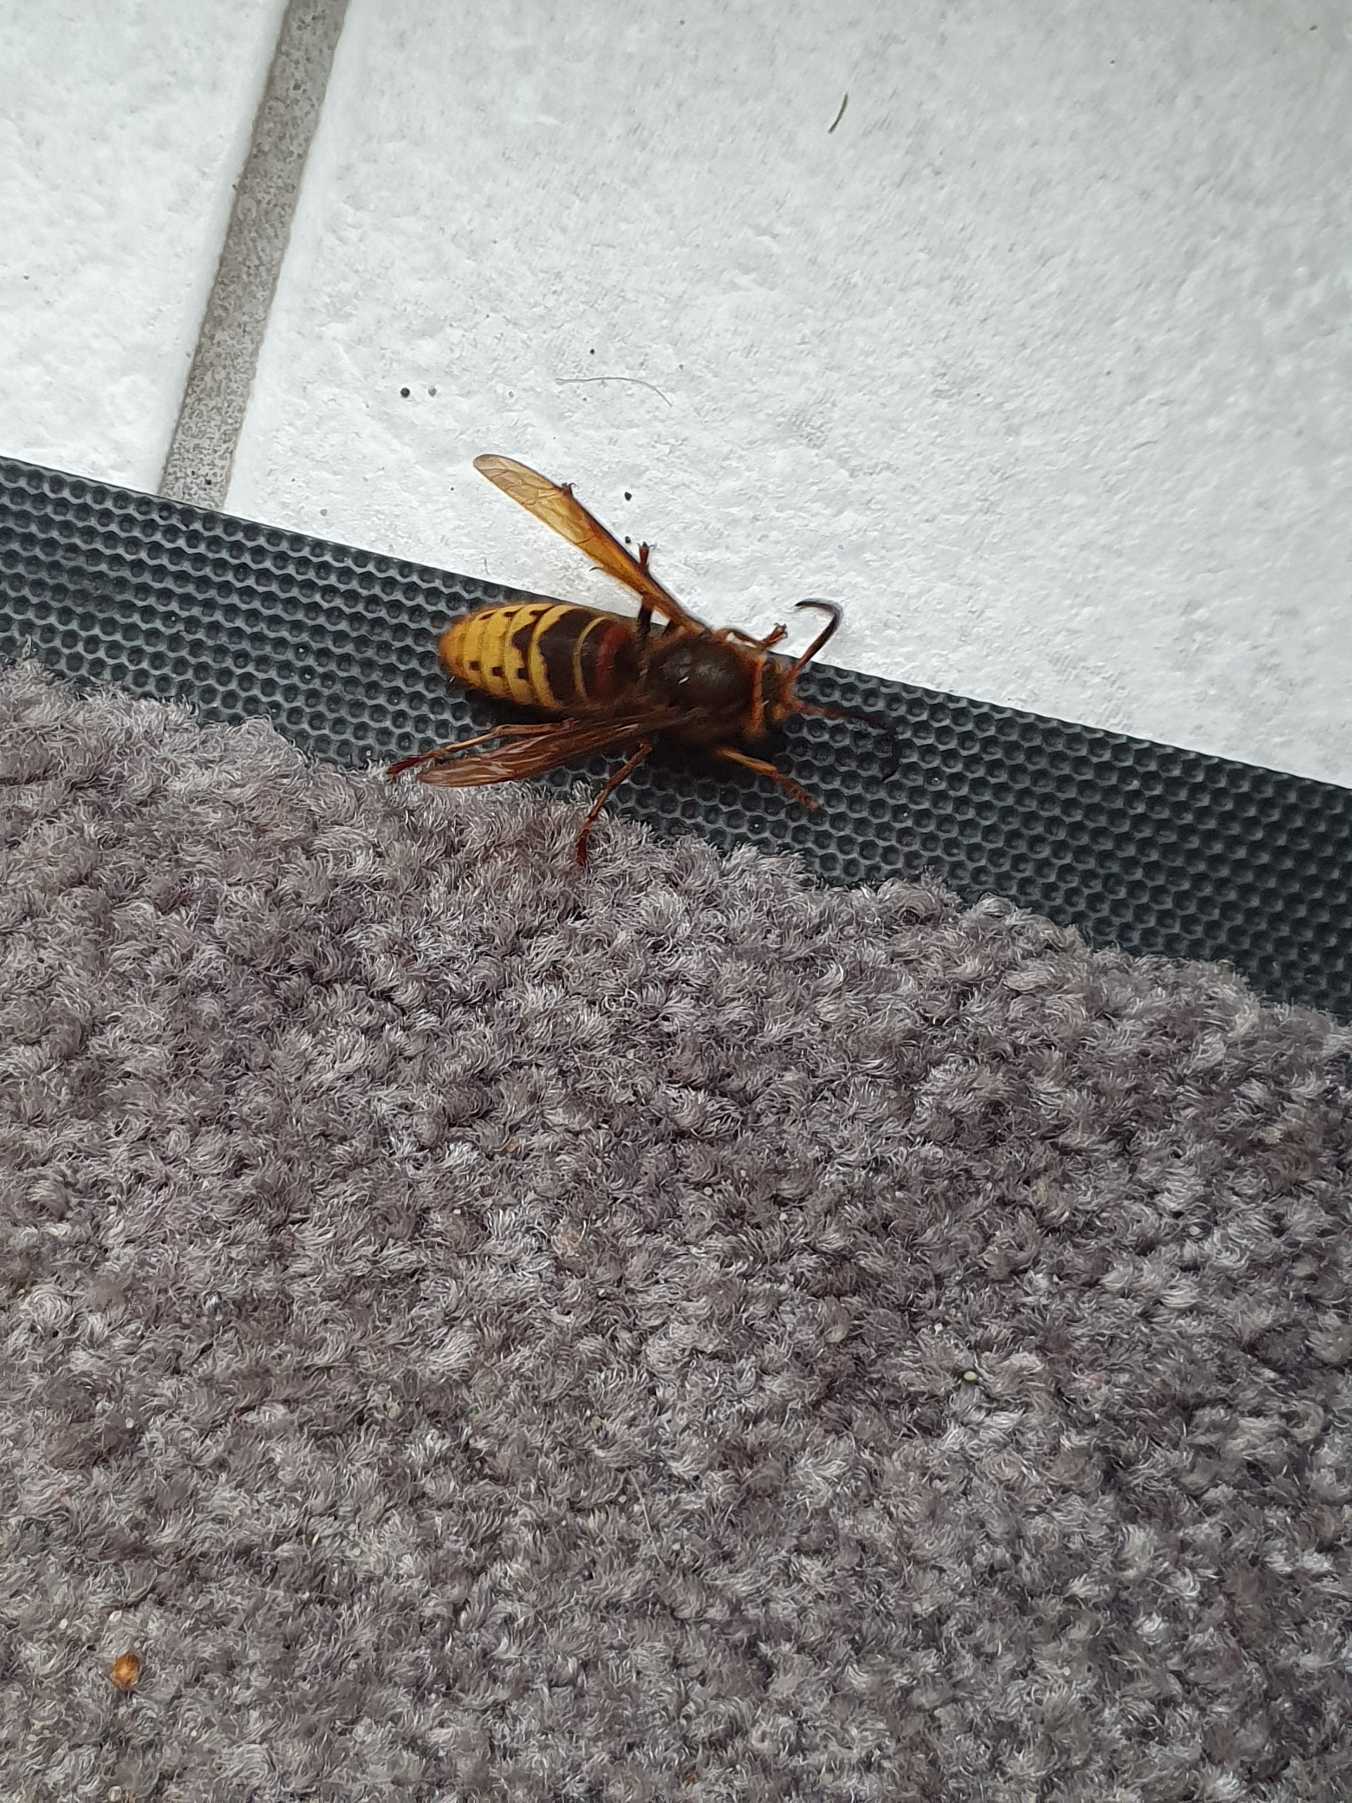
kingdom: Animalia
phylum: Arthropoda
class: Insecta
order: Hymenoptera
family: Vespidae
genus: Vespa
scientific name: Vespa crabro
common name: Stor gedehams
